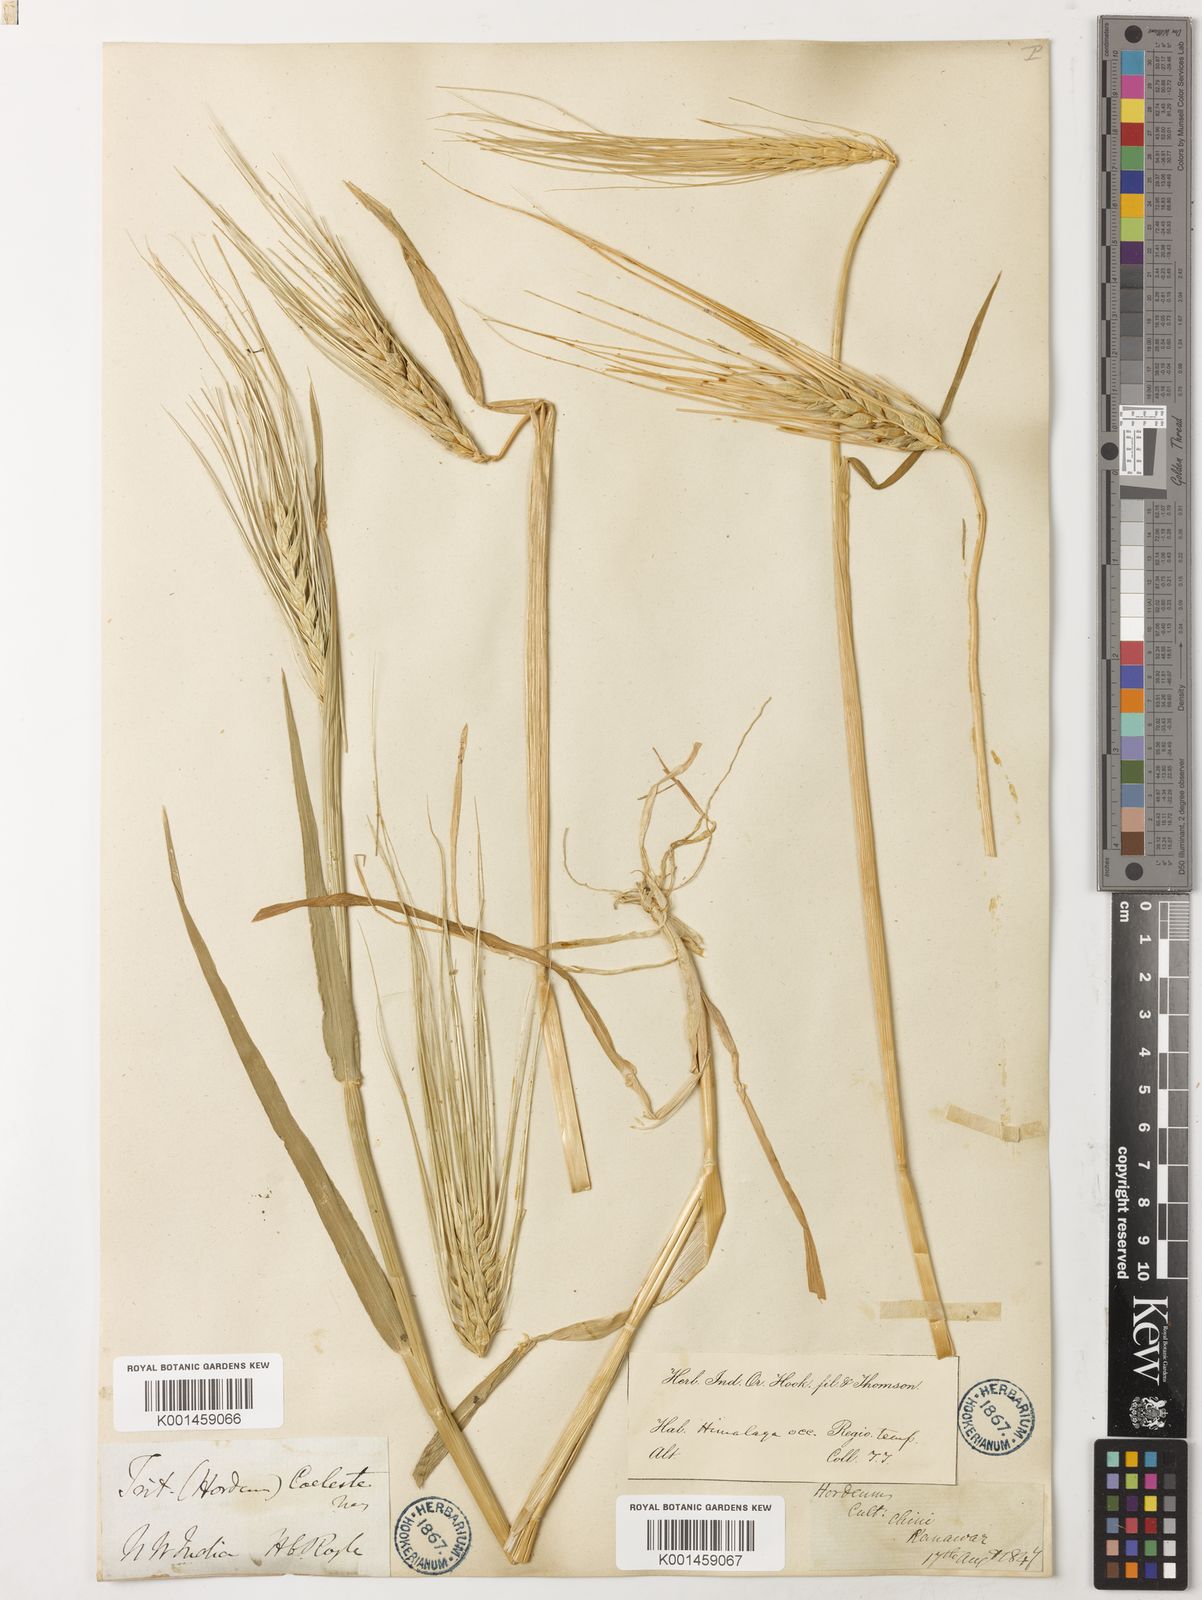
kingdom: Plantae
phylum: Tracheophyta
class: Liliopsida
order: Poales
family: Poaceae
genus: Hordeum
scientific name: Hordeum vulgare
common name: Common barley
